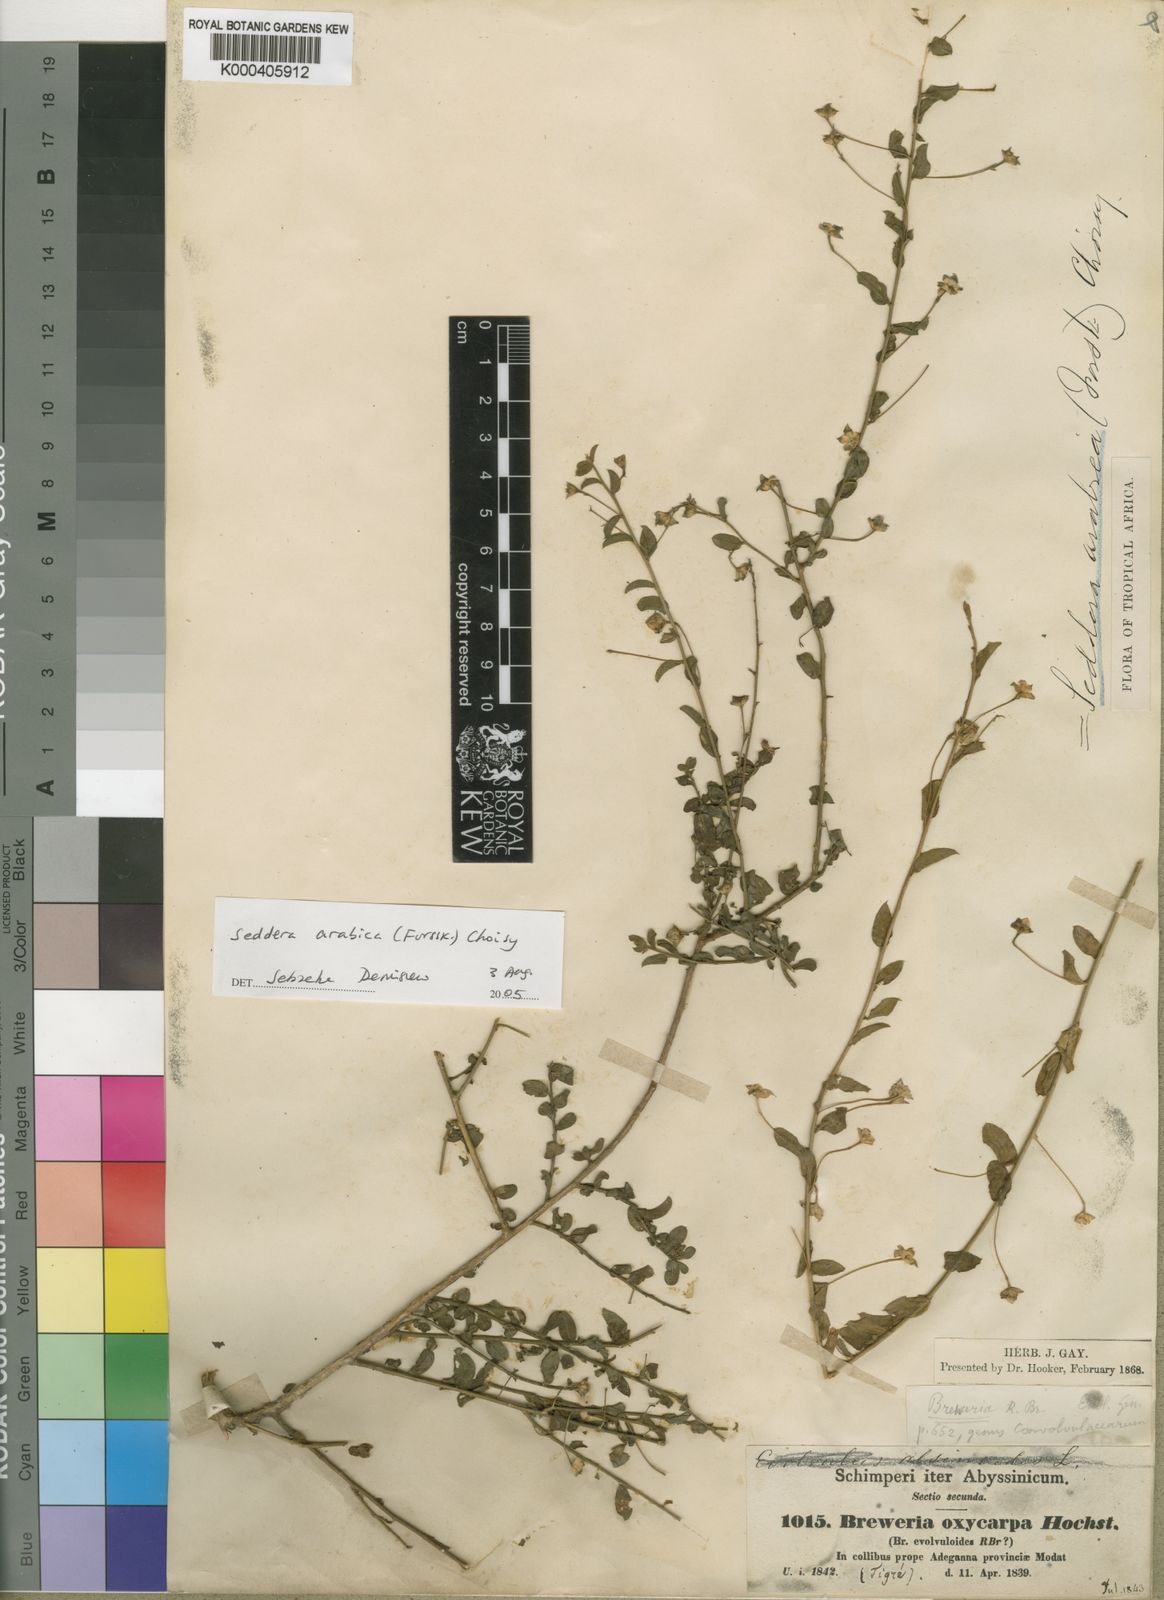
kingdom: Plantae
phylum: Tracheophyta
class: Magnoliopsida
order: Solanales
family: Convolvulaceae
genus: Seddera
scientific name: Seddera arabica
